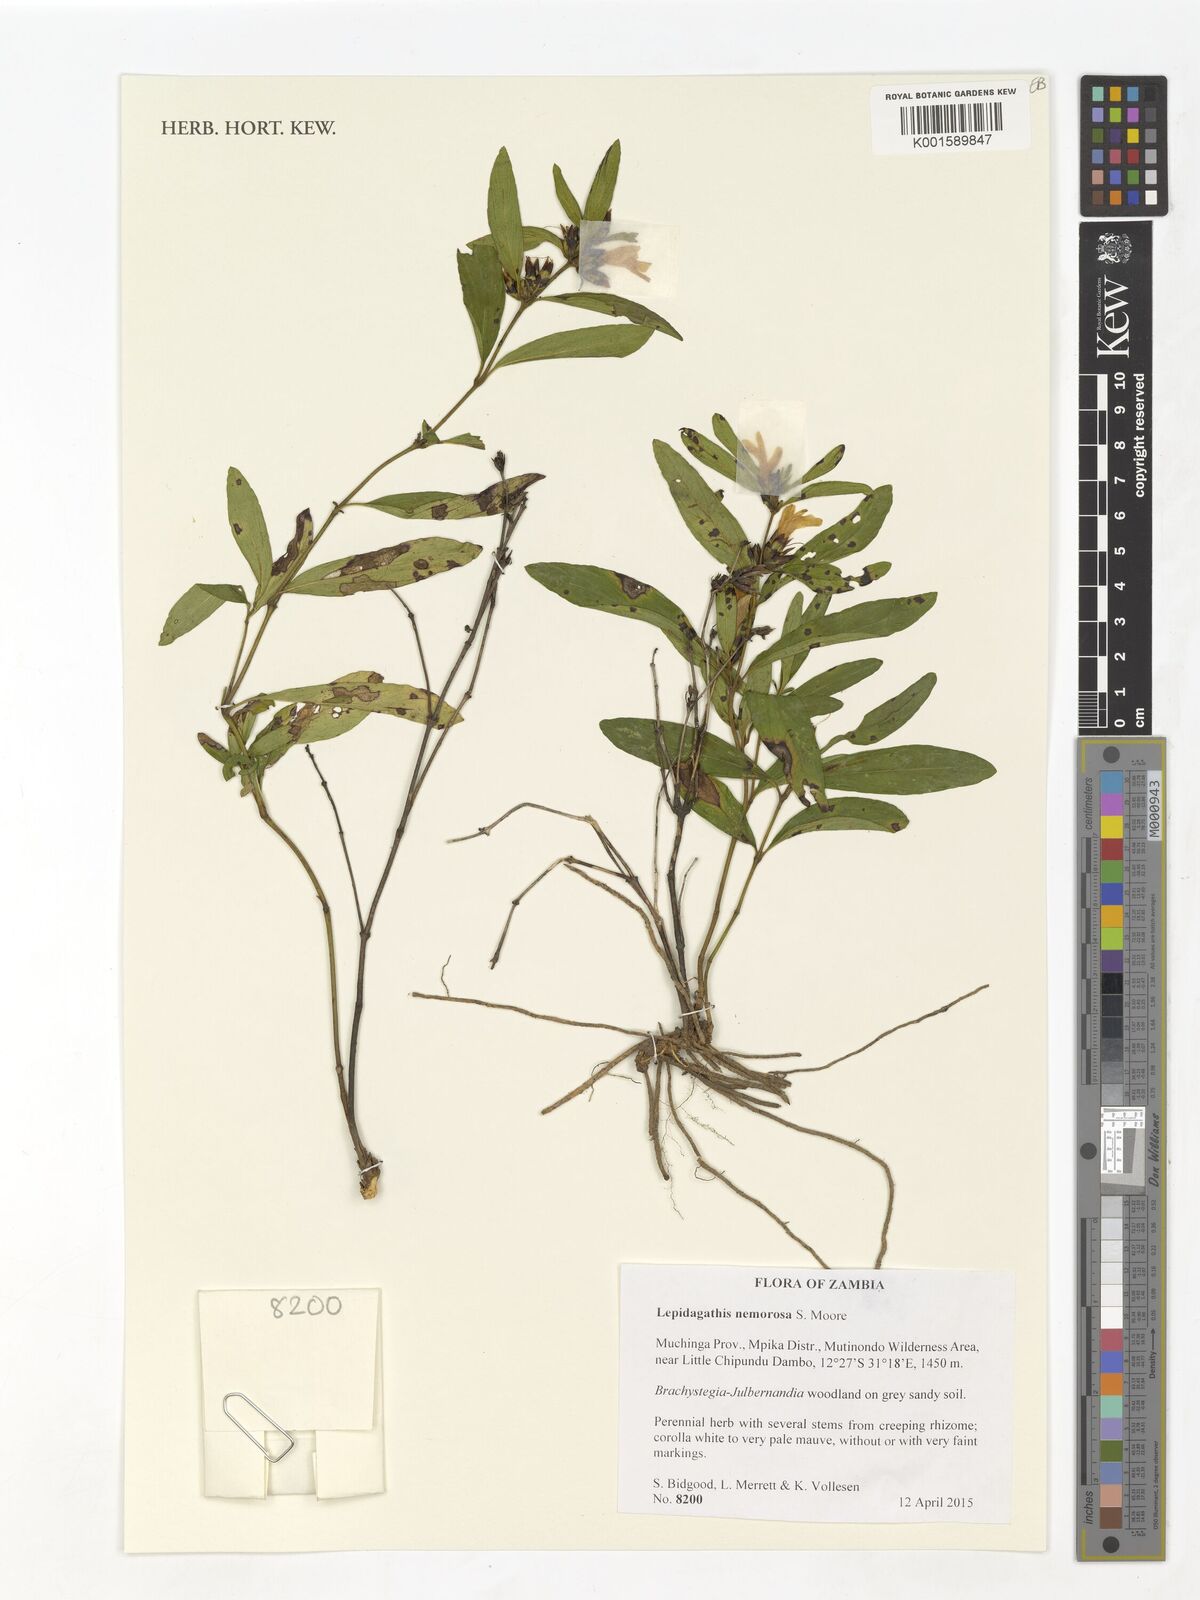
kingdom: Plantae
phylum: Tracheophyta
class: Magnoliopsida
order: Lamiales
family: Acanthaceae
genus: Lepidagathis
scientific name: Lepidagathis nemorosa
